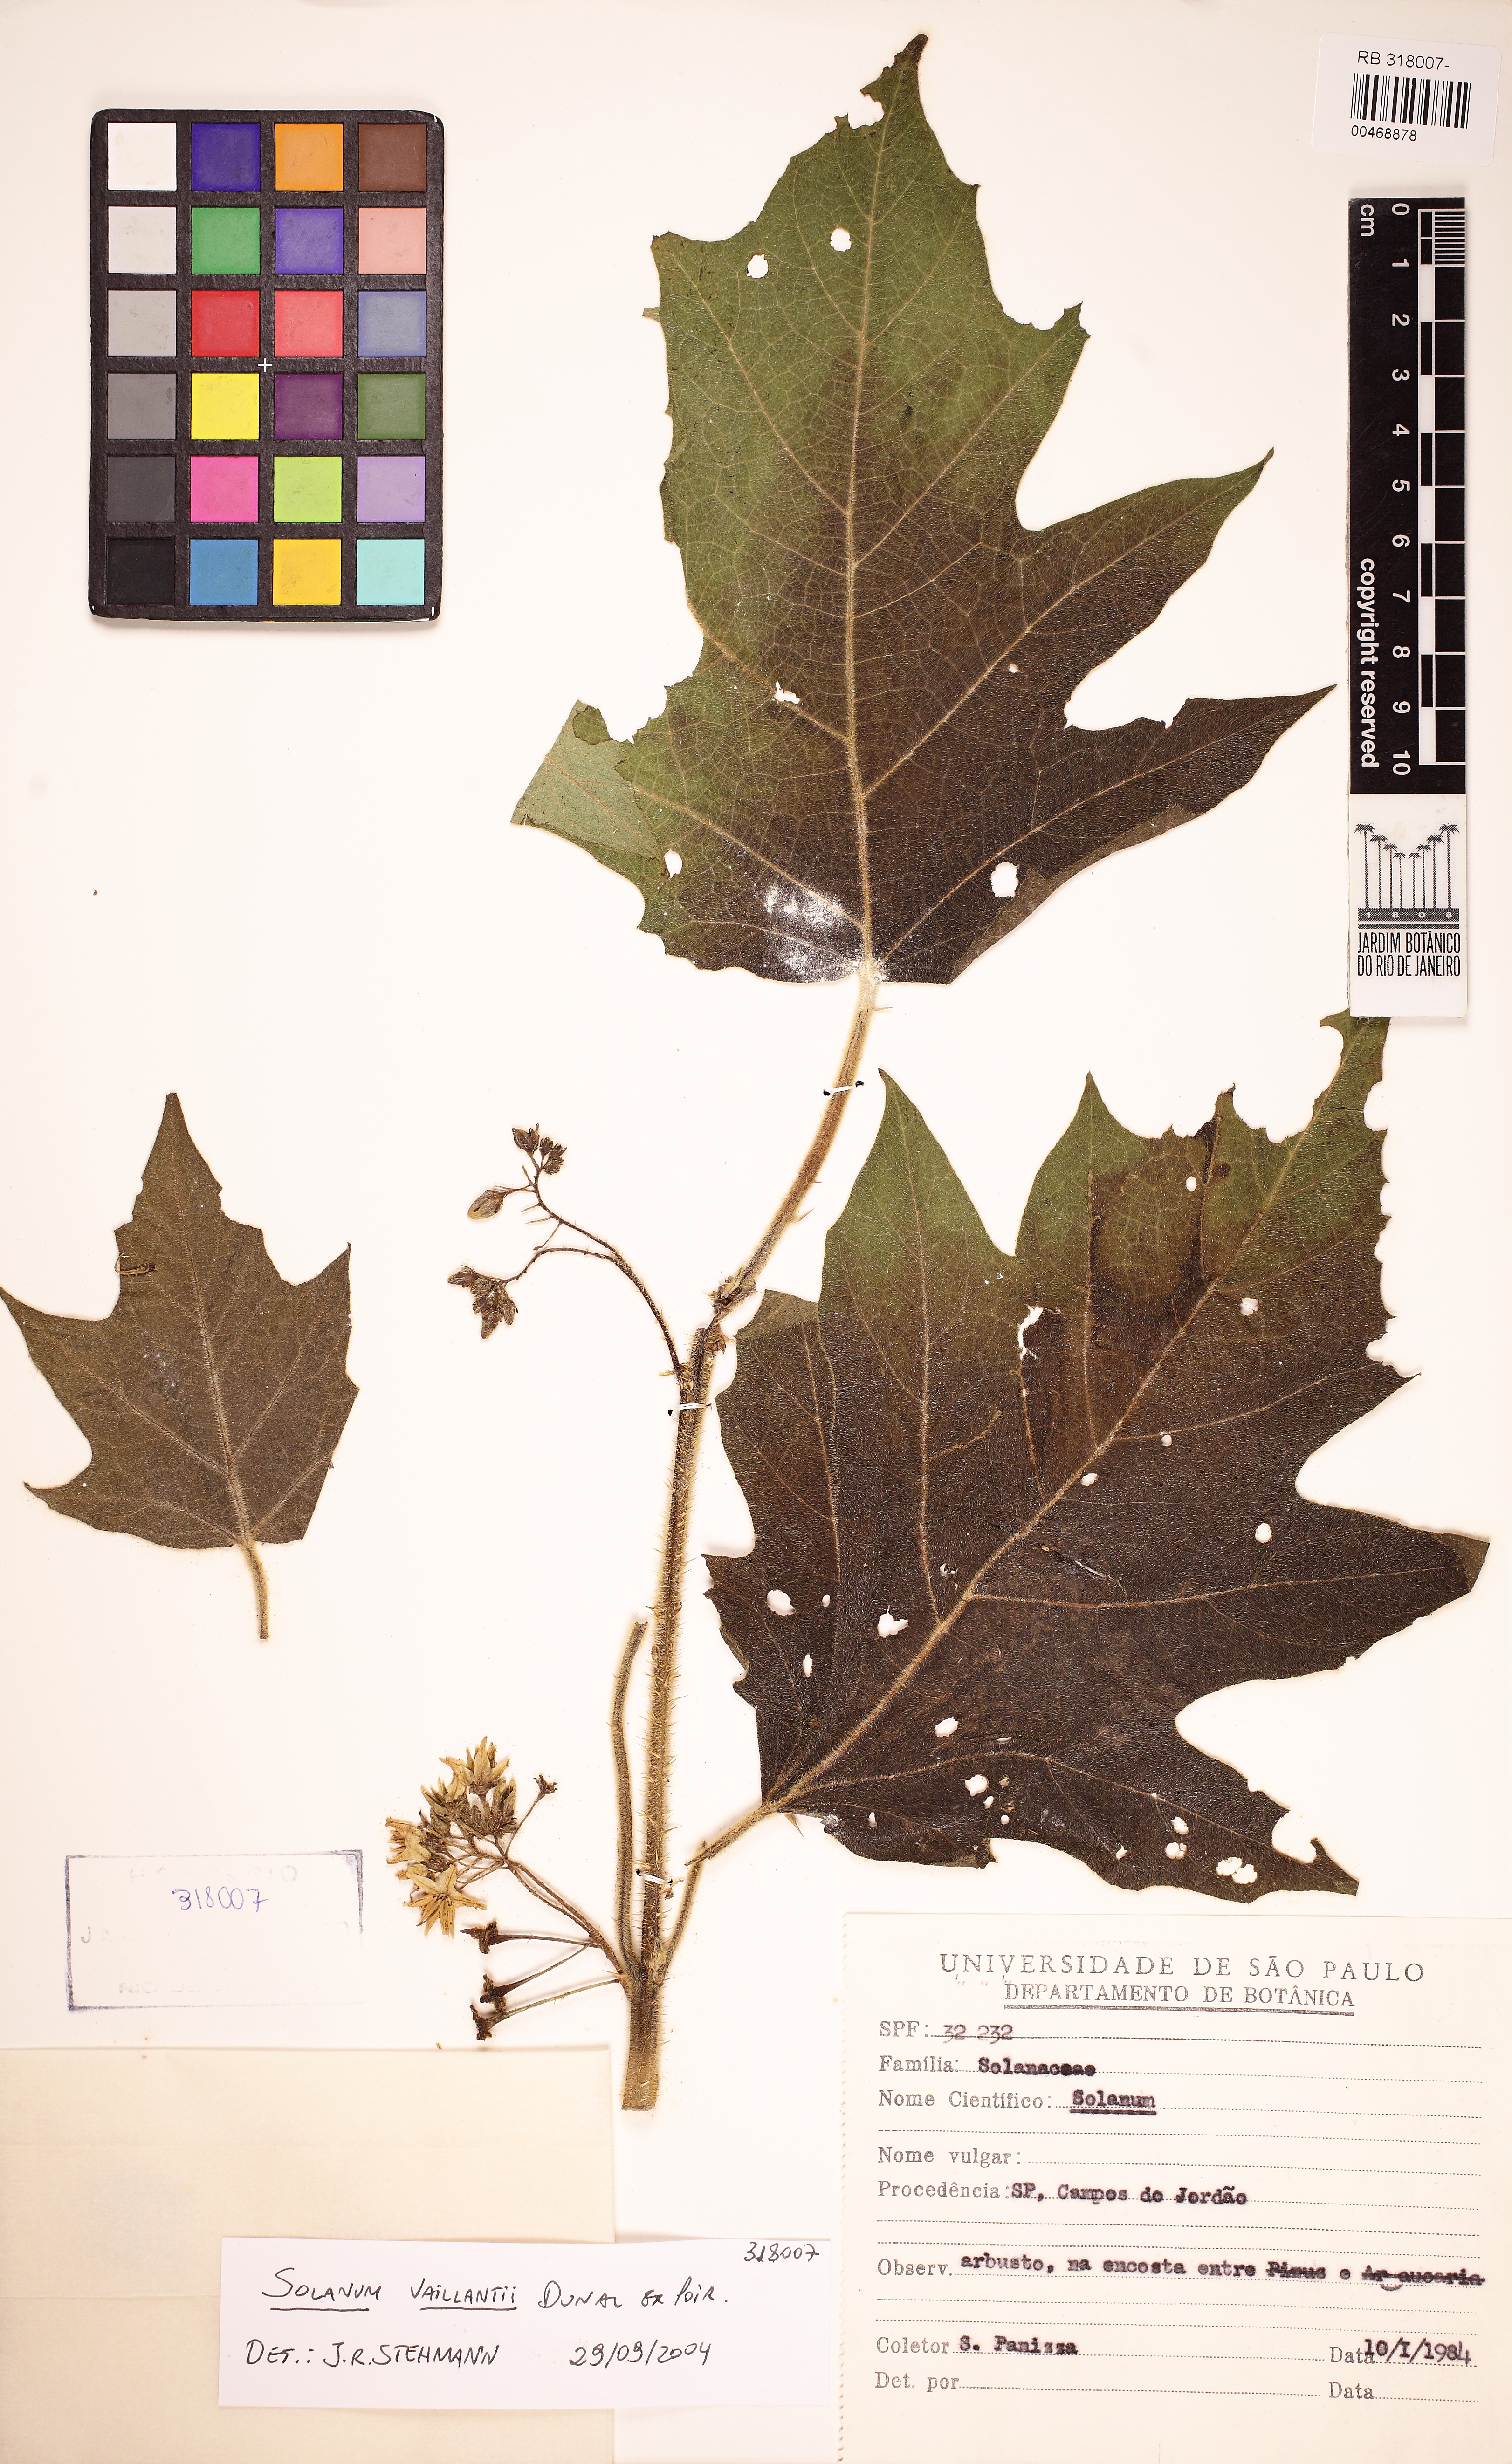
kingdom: Plantae
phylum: Tracheophyta
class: Magnoliopsida
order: Solanales
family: Solanaceae
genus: Solanum
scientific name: Solanum vaillantii
